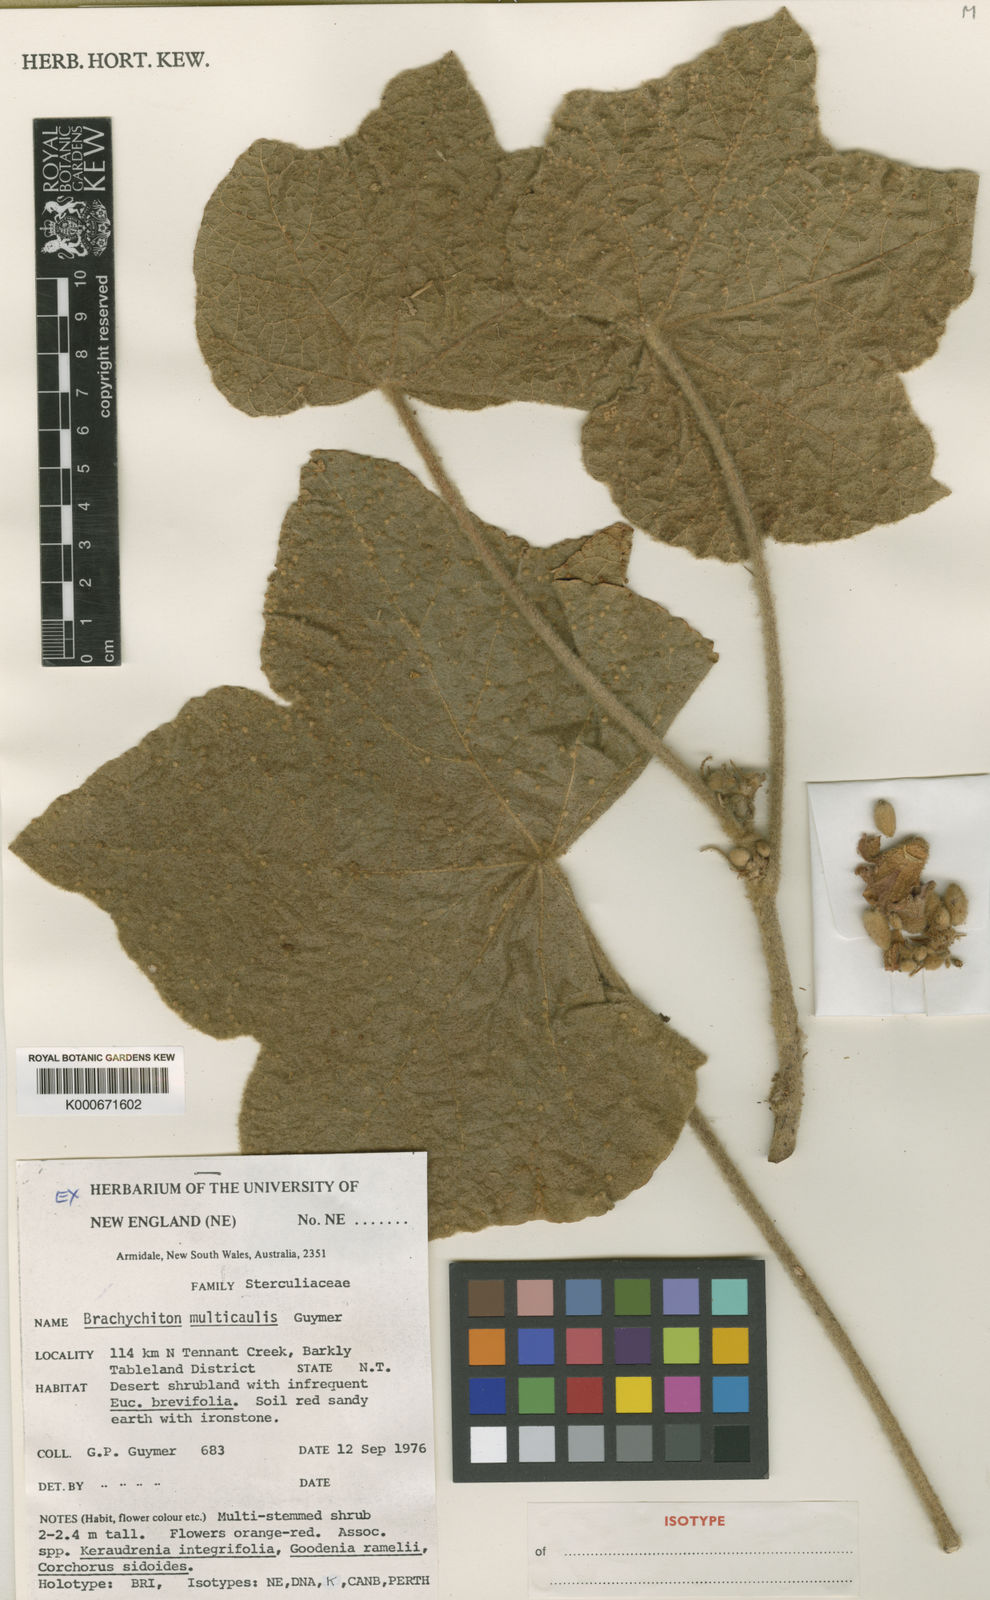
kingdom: Plantae
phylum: Tracheophyta
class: Magnoliopsida
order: Malvales
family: Malvaceae
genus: Brachychiton
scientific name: Brachychiton multicaulis
